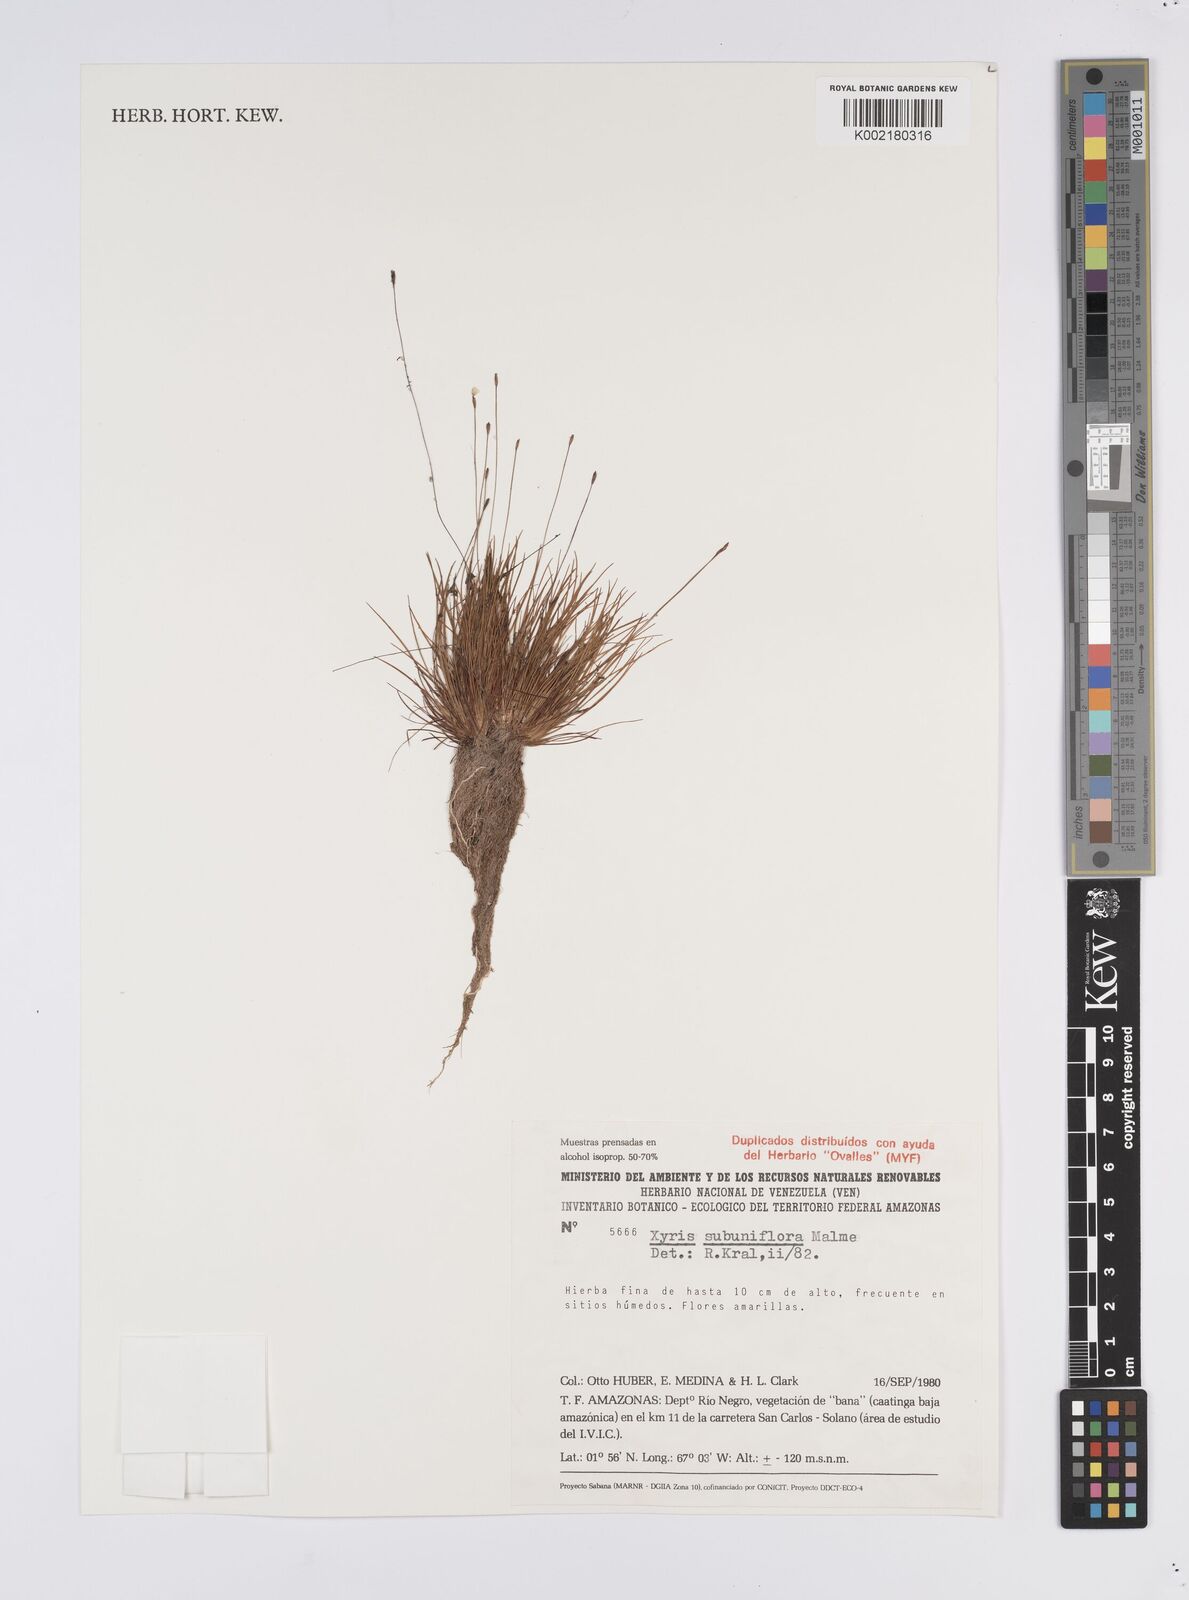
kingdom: Plantae
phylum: Tracheophyta
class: Liliopsida
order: Poales
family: Xyridaceae
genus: Xyris
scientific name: Xyris subuniflora
